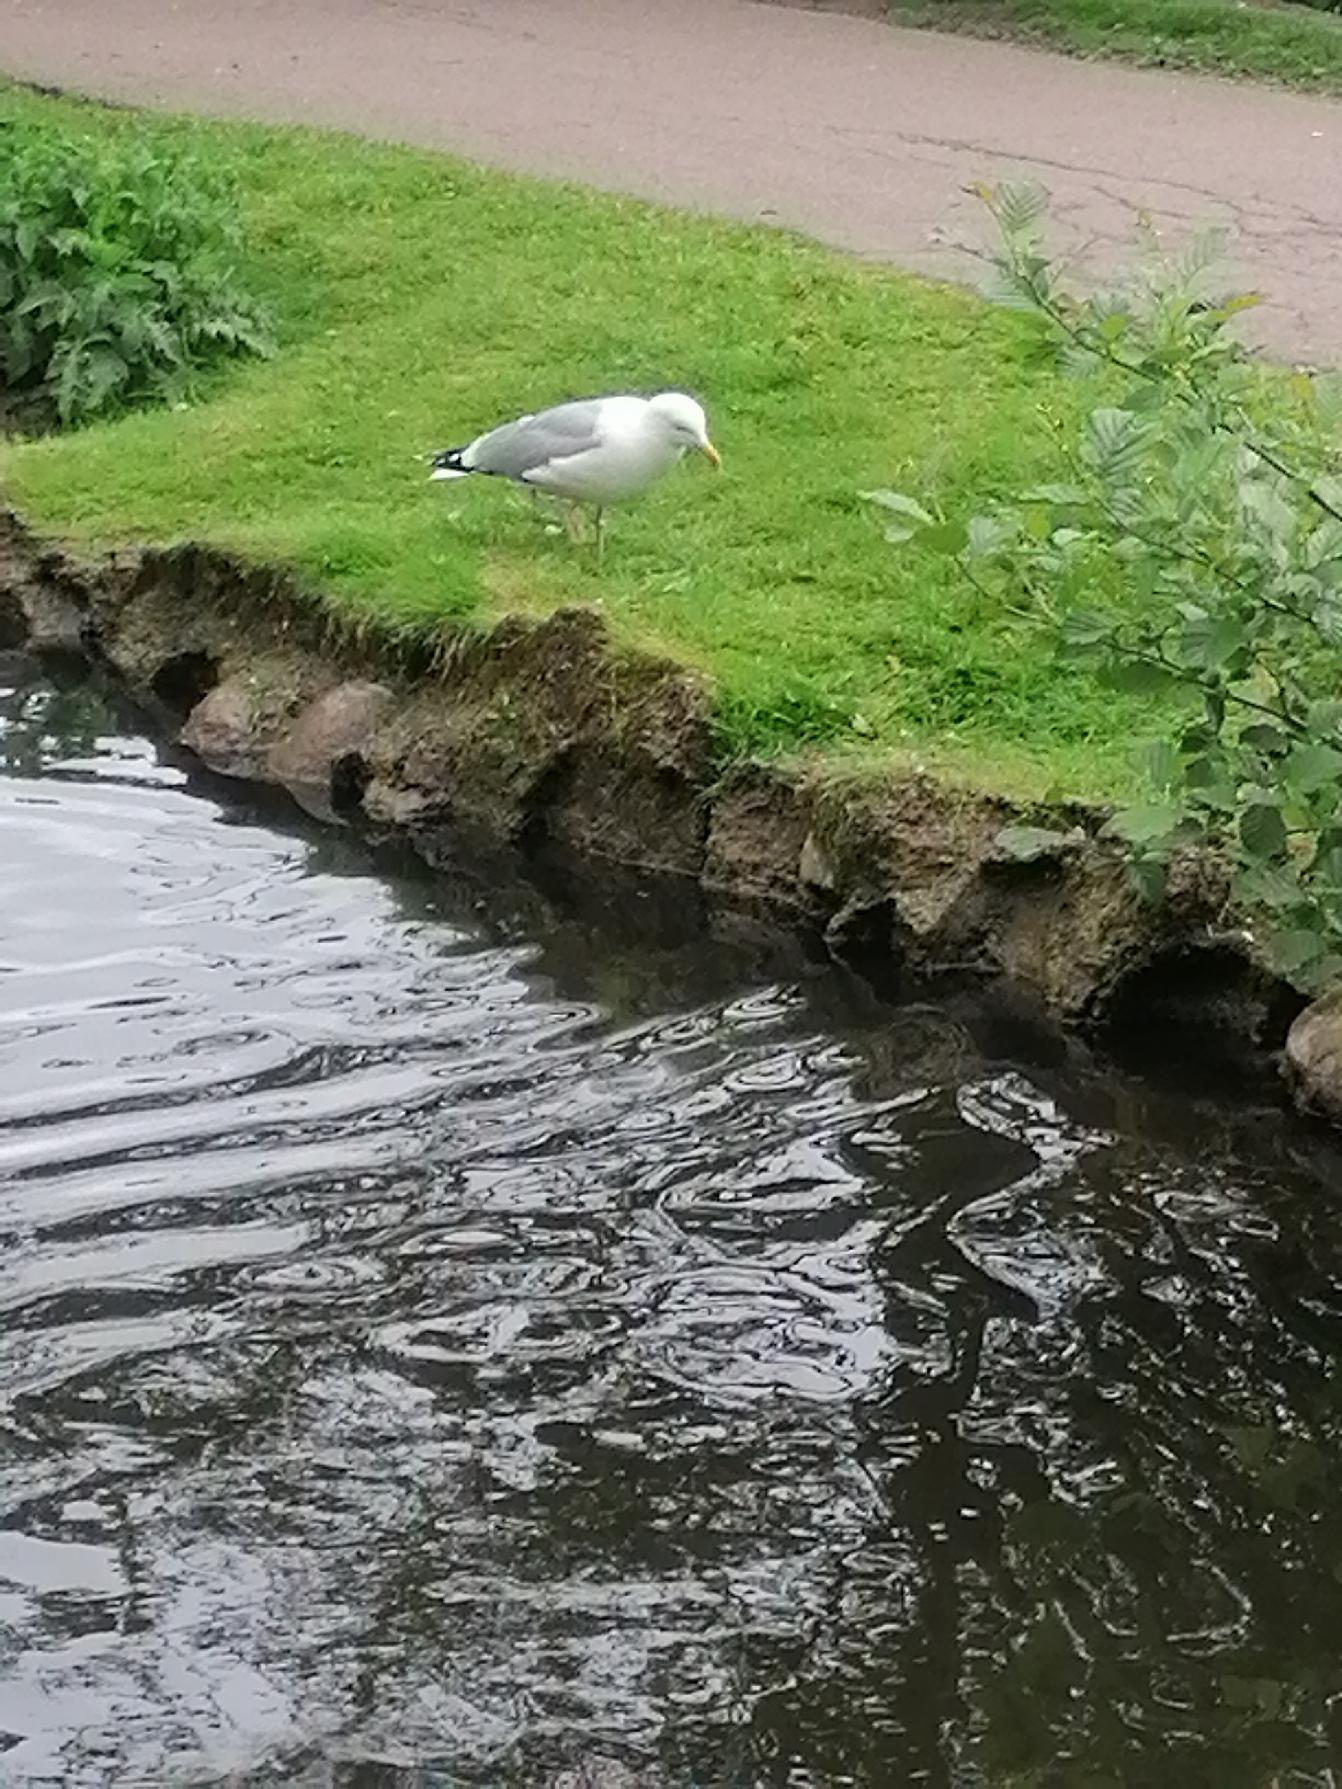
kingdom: Animalia
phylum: Chordata
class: Aves
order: Charadriiformes
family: Laridae
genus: Larus
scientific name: Larus argentatus
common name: Sølvmåge
